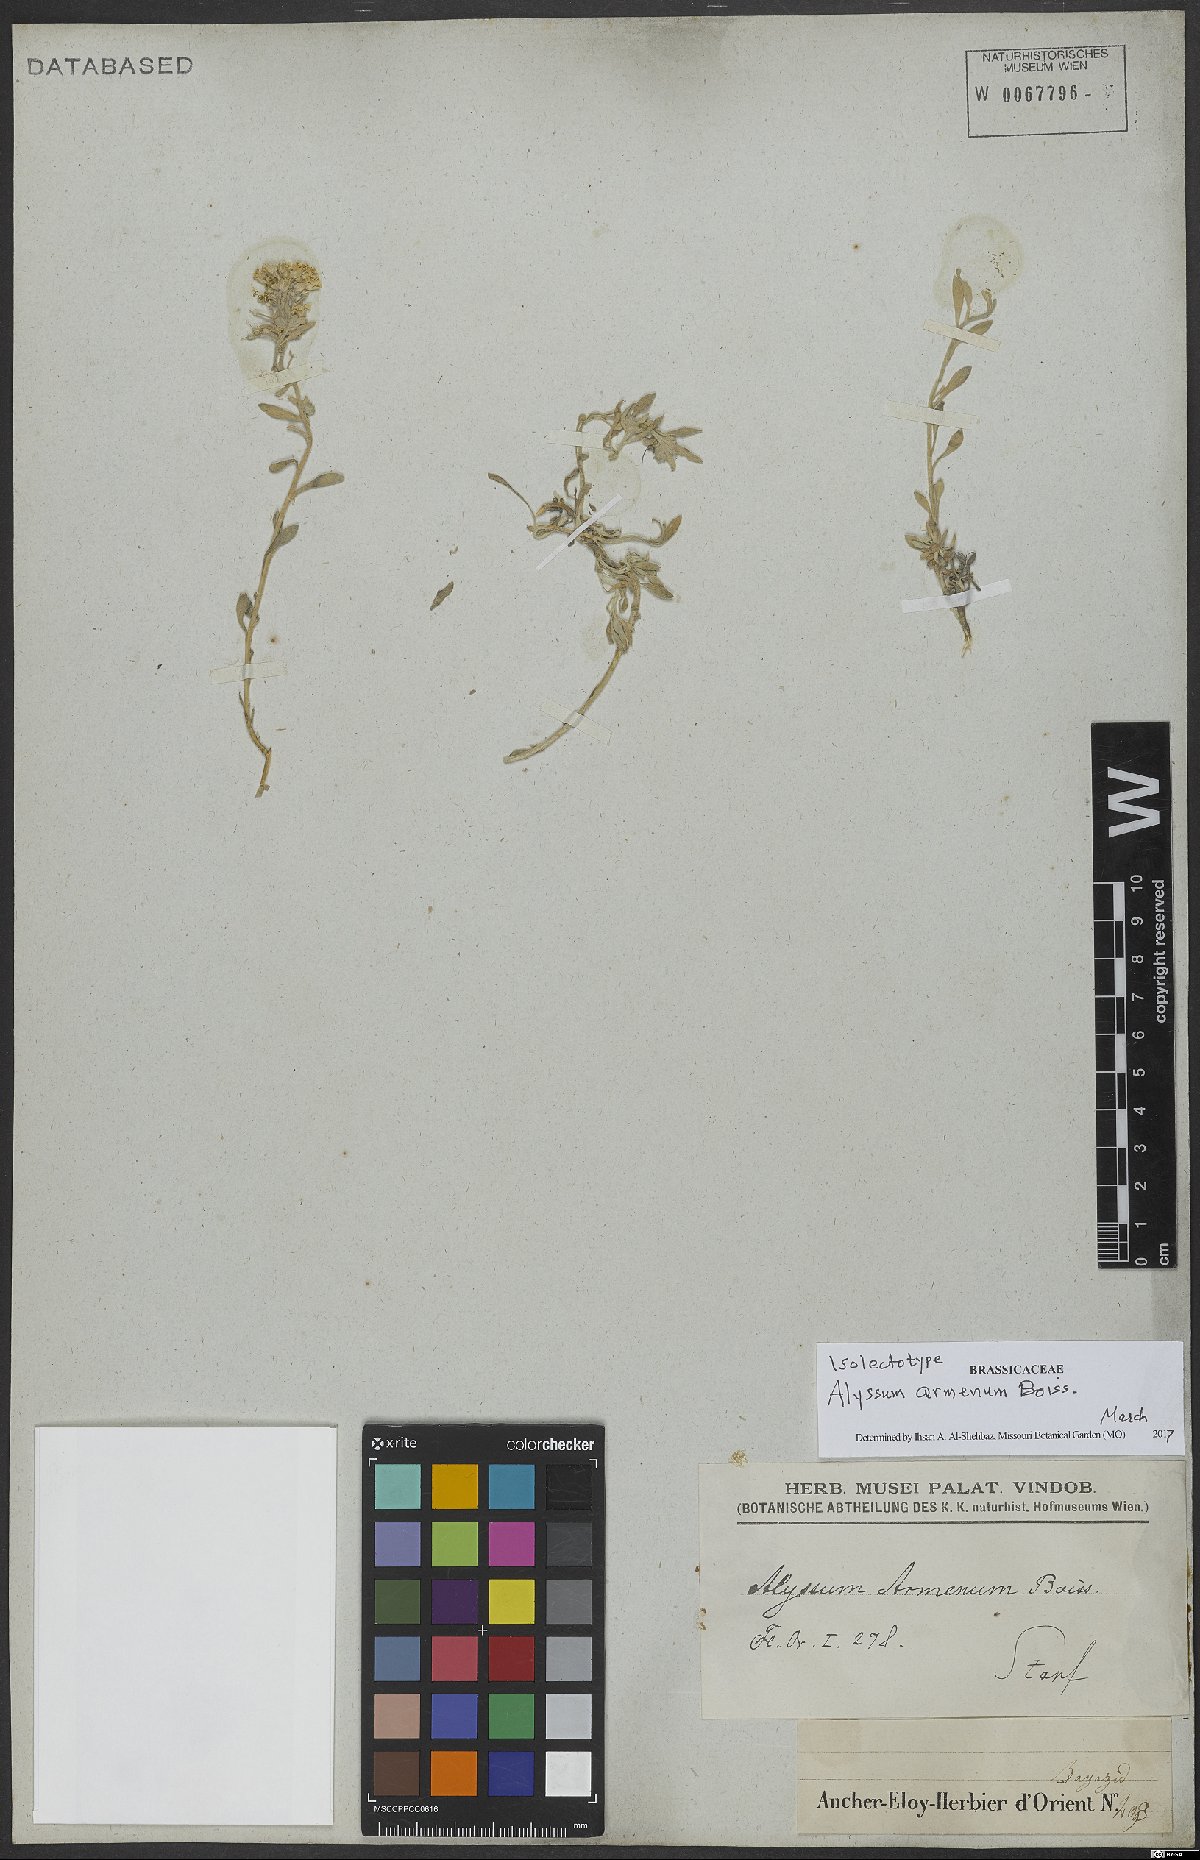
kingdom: Plantae
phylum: Tracheophyta
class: Magnoliopsida
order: Brassicales
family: Brassicaceae
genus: Alyssum
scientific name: Alyssum armenum
